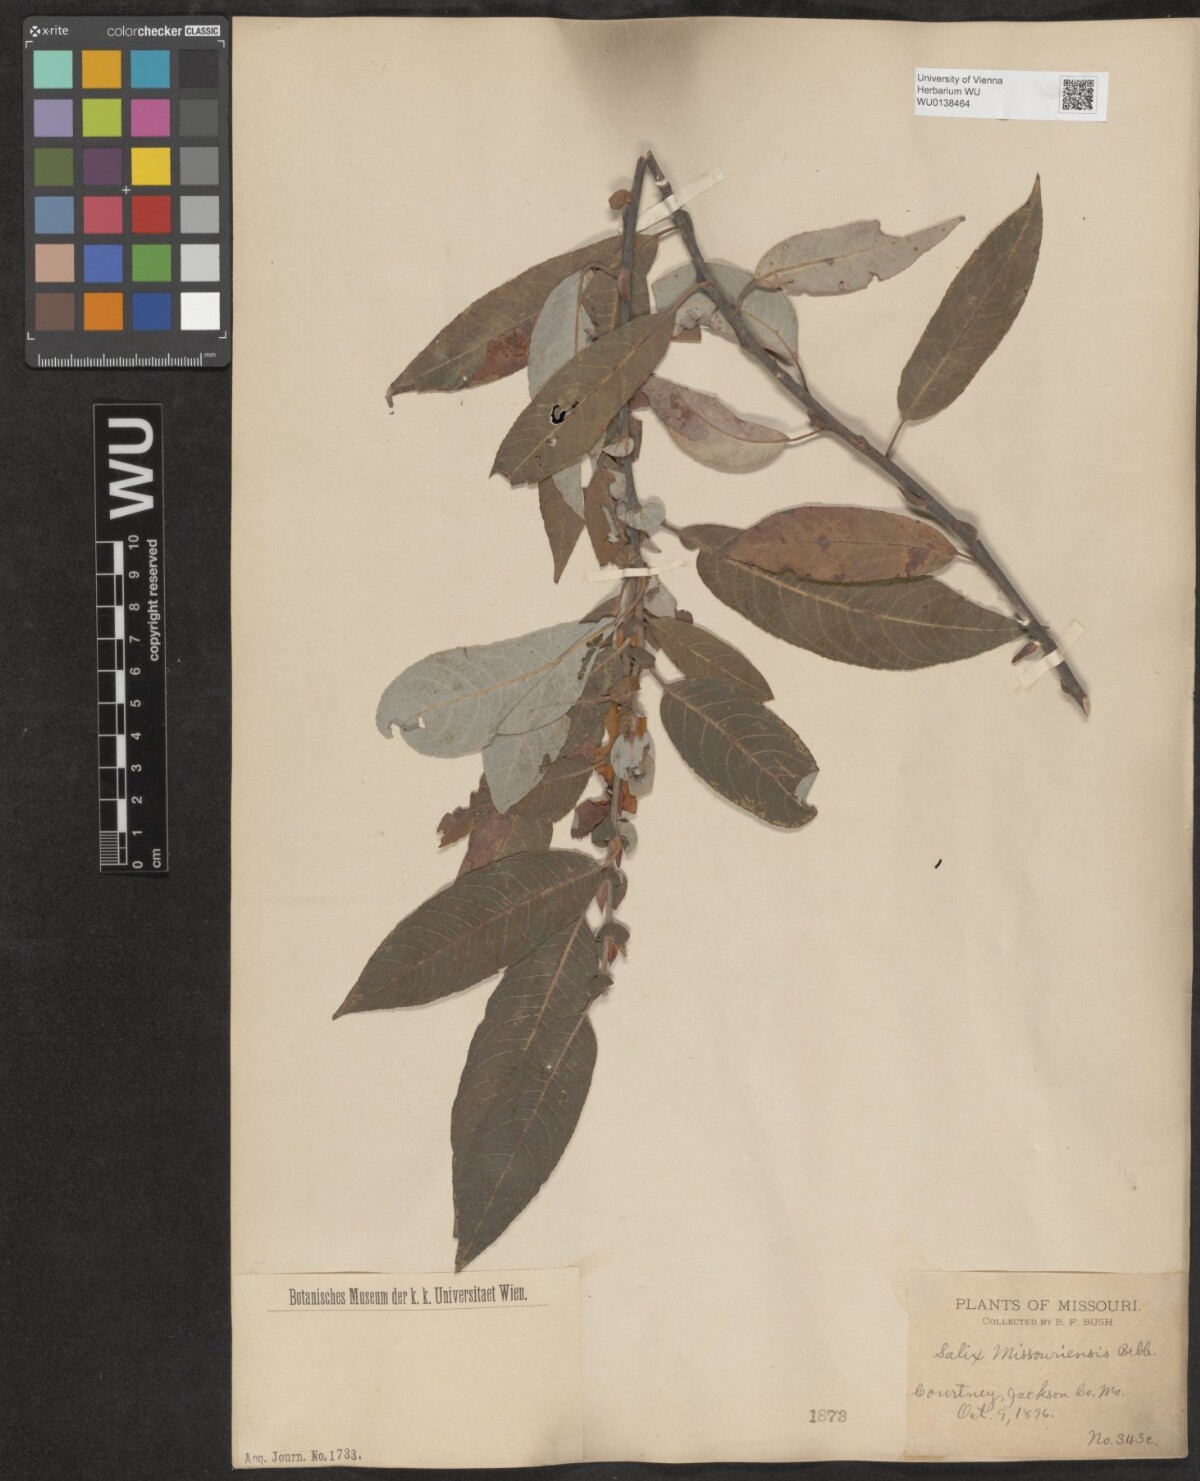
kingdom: Plantae
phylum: Tracheophyta
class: Magnoliopsida
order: Malpighiales
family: Salicaceae
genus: Salix
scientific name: Salix eriocephala
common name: Heart-leaved willow
